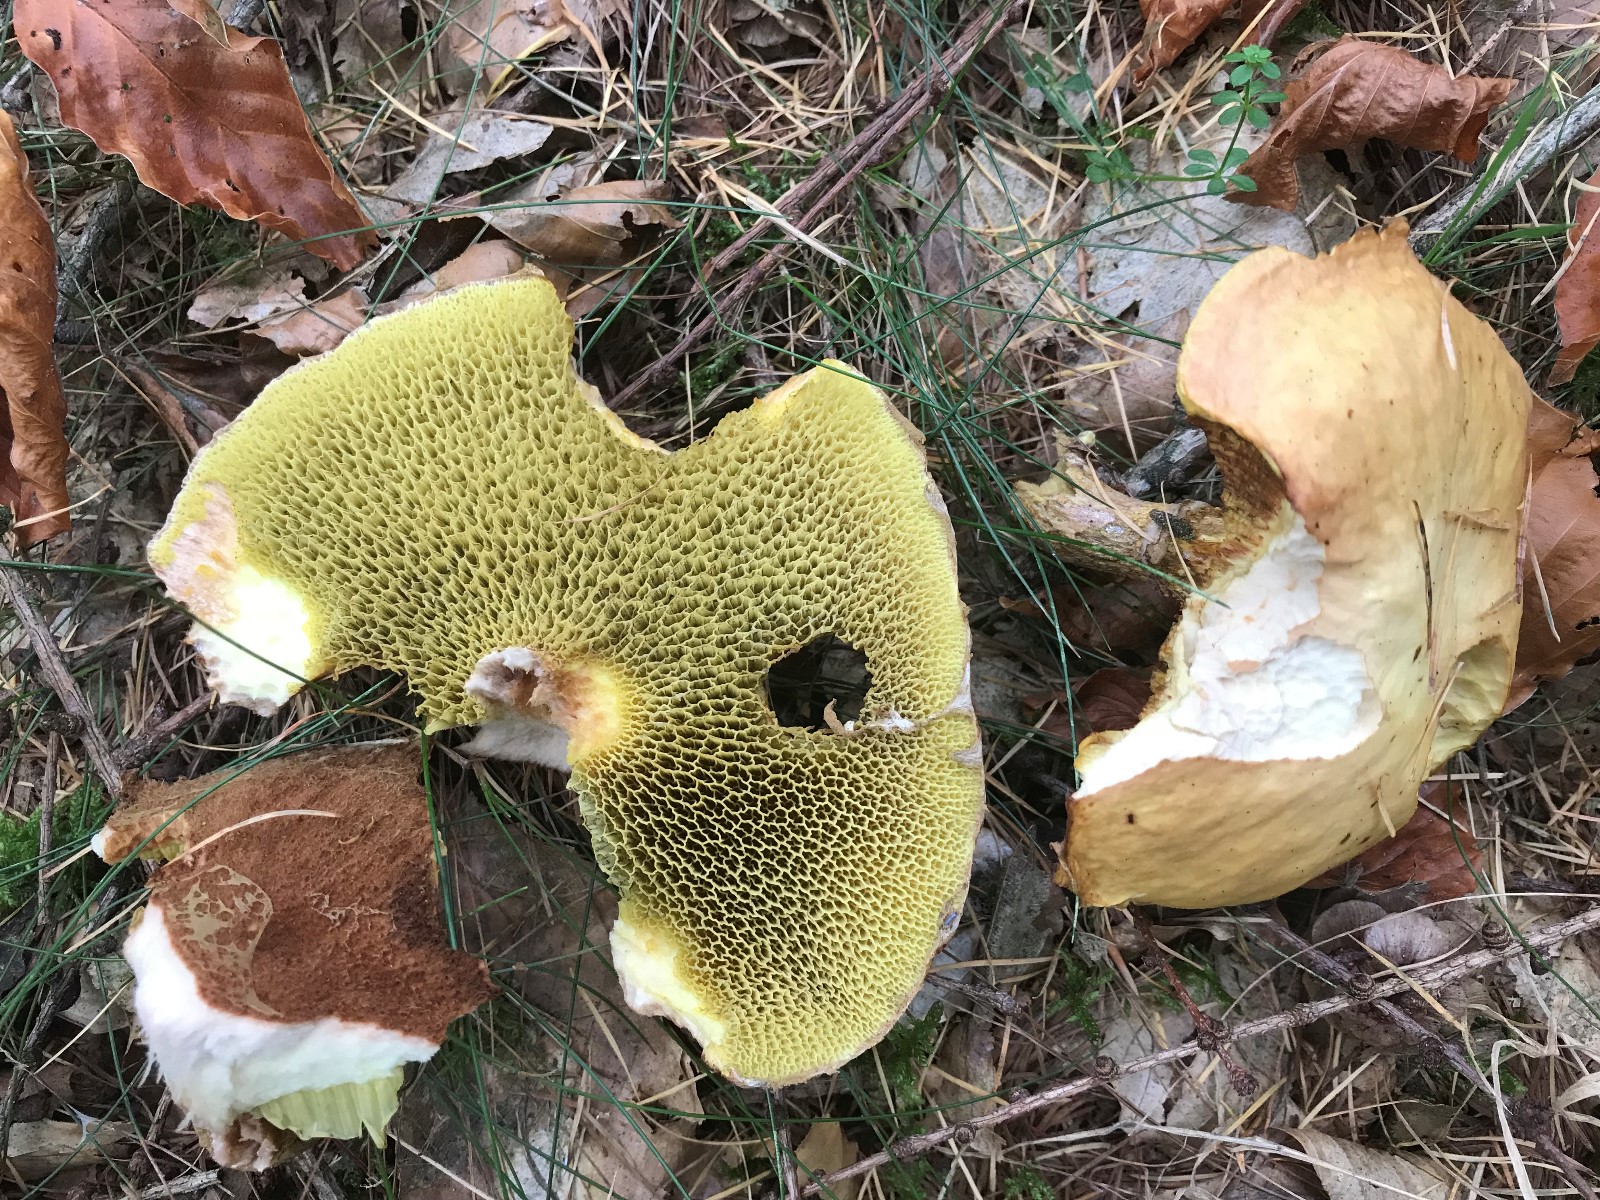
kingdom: Fungi
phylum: Basidiomycota
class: Agaricomycetes
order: Boletales
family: Suillaceae
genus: Suillus
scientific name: Suillus bovinus
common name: grovporet slimrørhat
